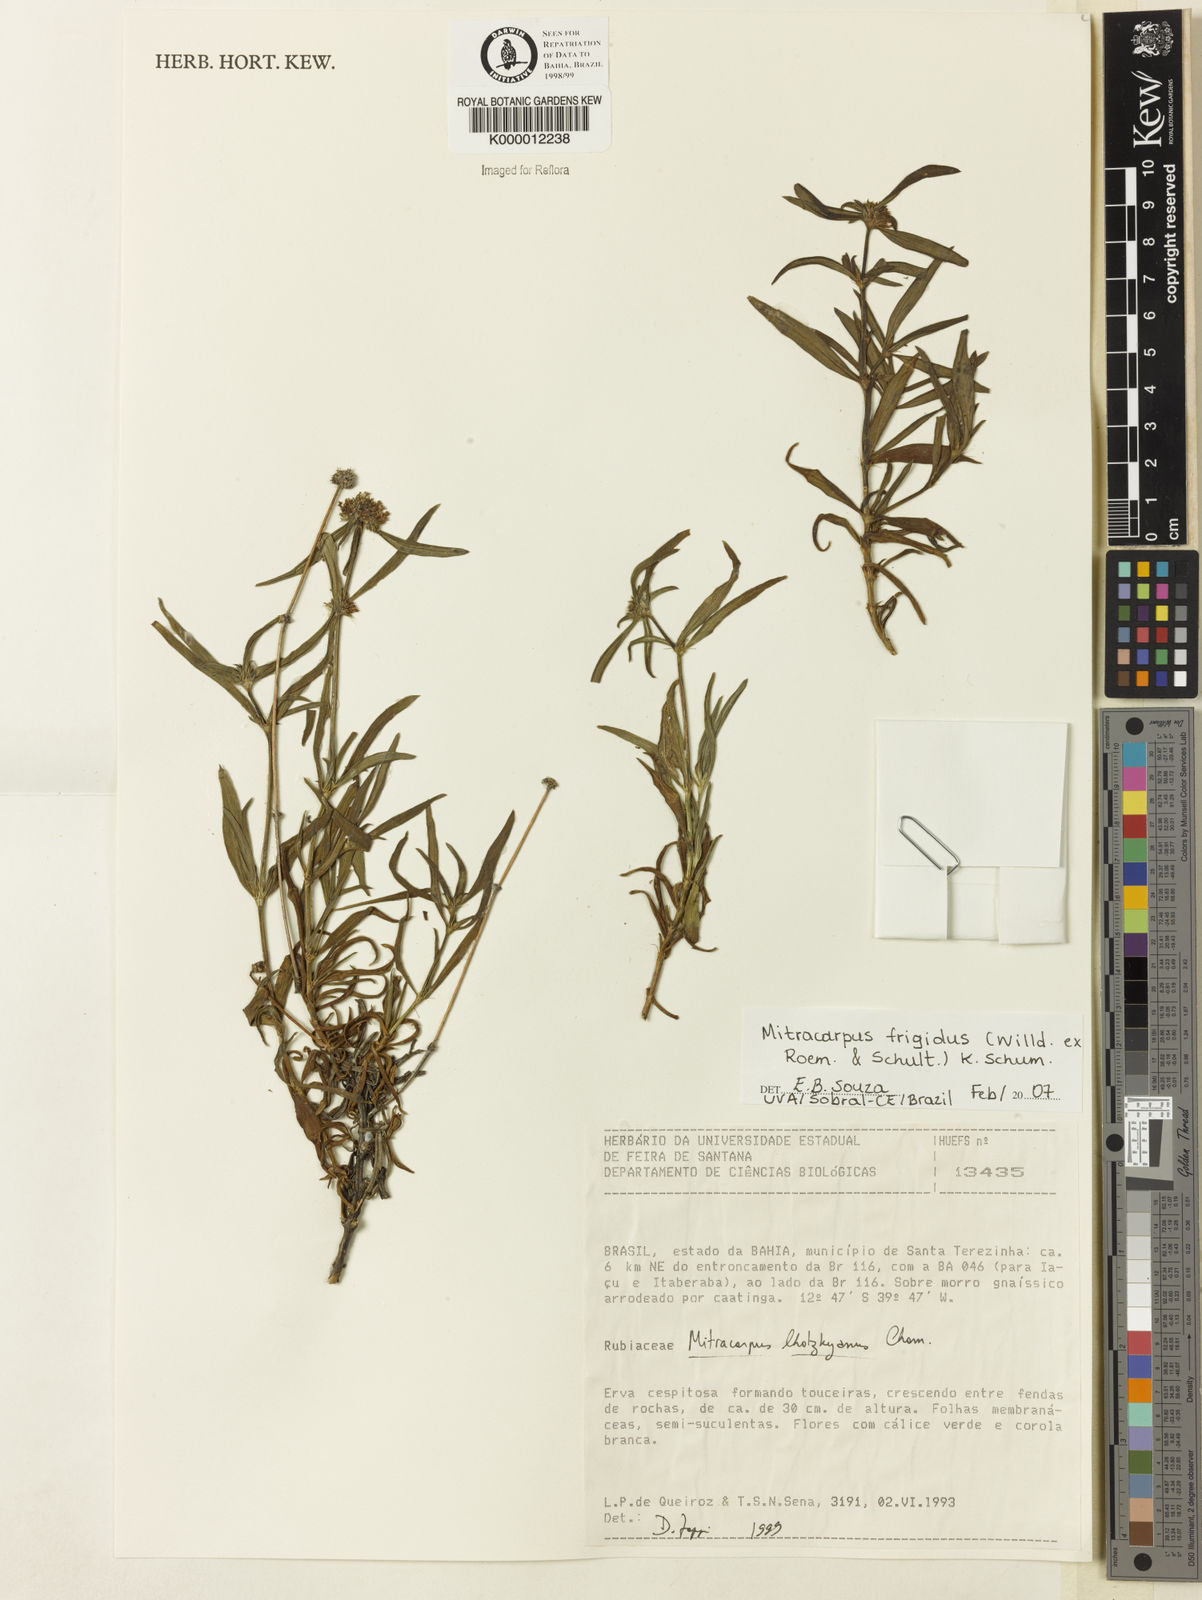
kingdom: Plantae
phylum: Tracheophyta
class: Magnoliopsida
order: Gentianales
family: Rubiaceae
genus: Mitracarpus
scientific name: Mitracarpus frigidus
